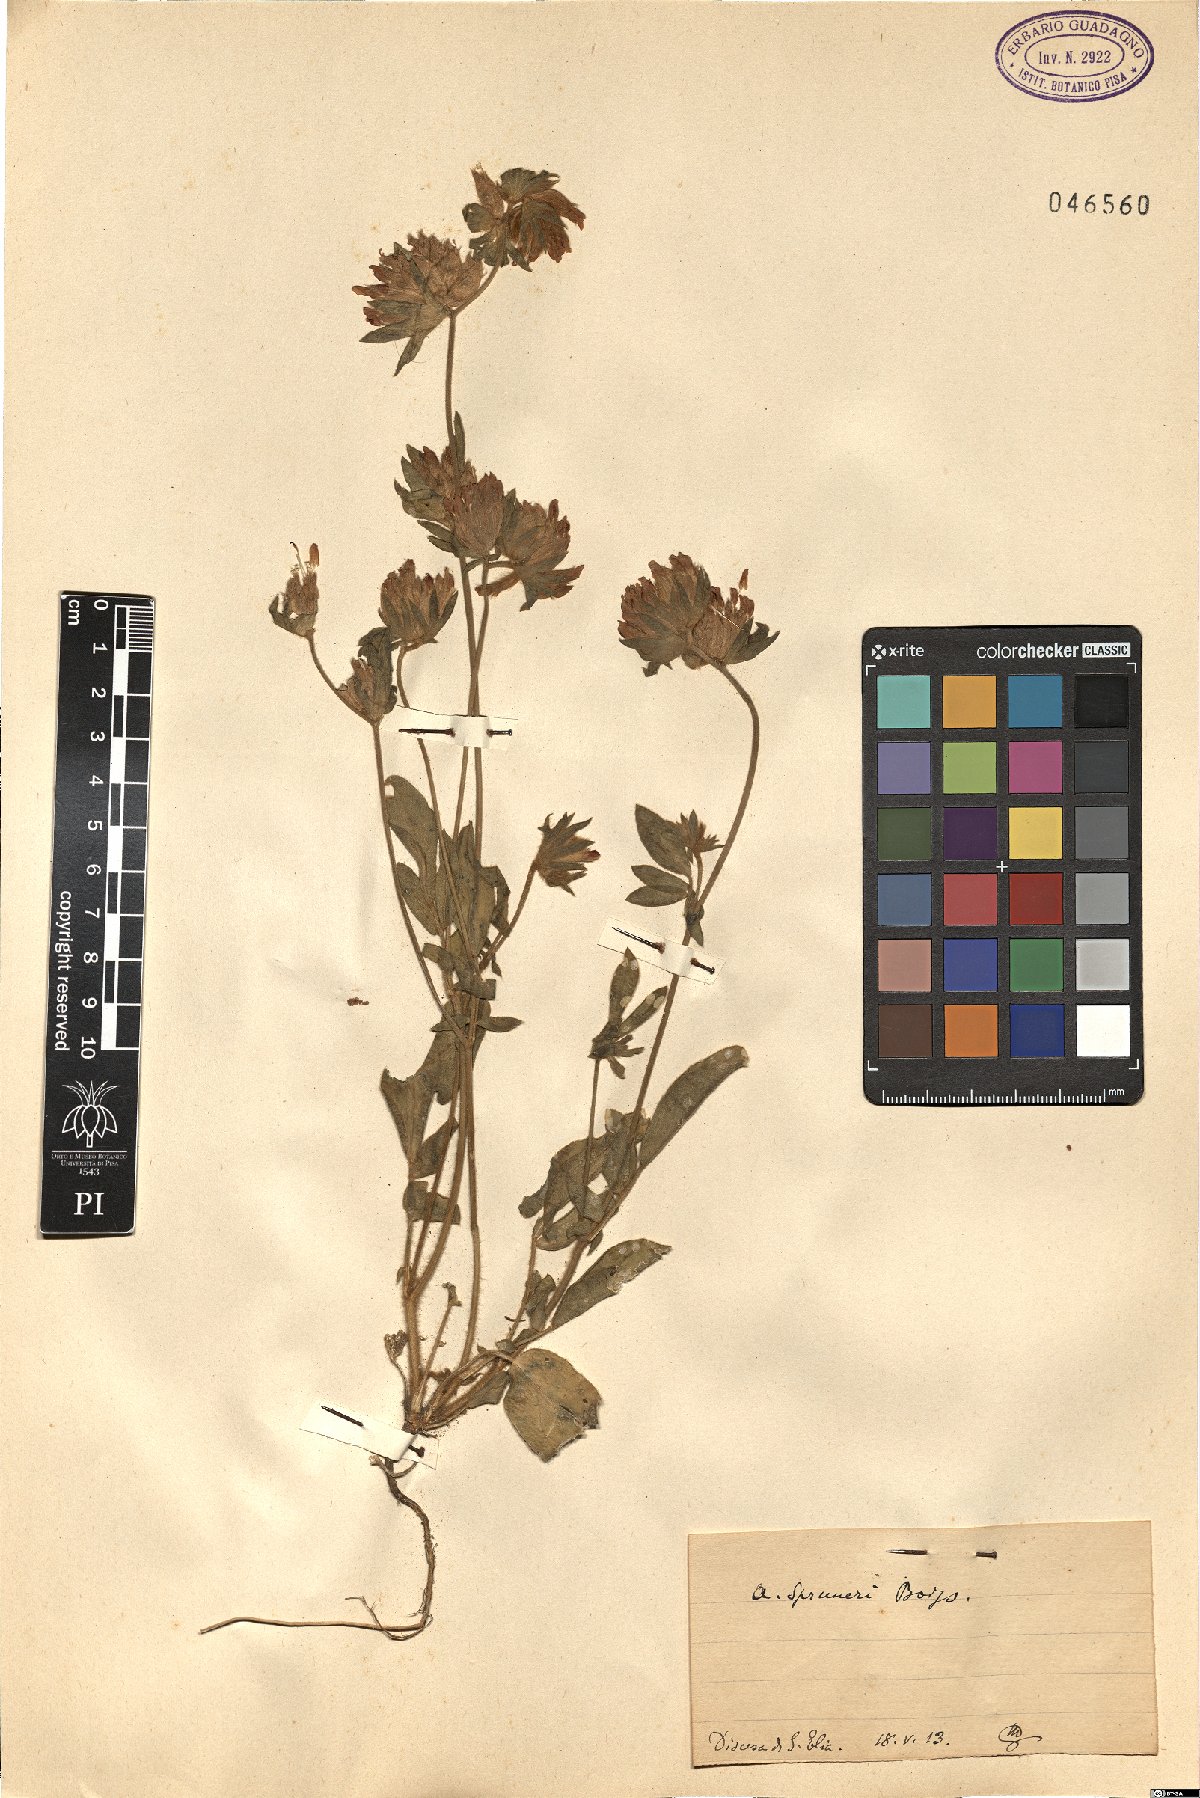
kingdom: Plantae
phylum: Tracheophyta
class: Magnoliopsida
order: Fabales
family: Fabaceae
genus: Anthyllis
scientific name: Anthyllis vulneraria
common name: Kidney vetch
